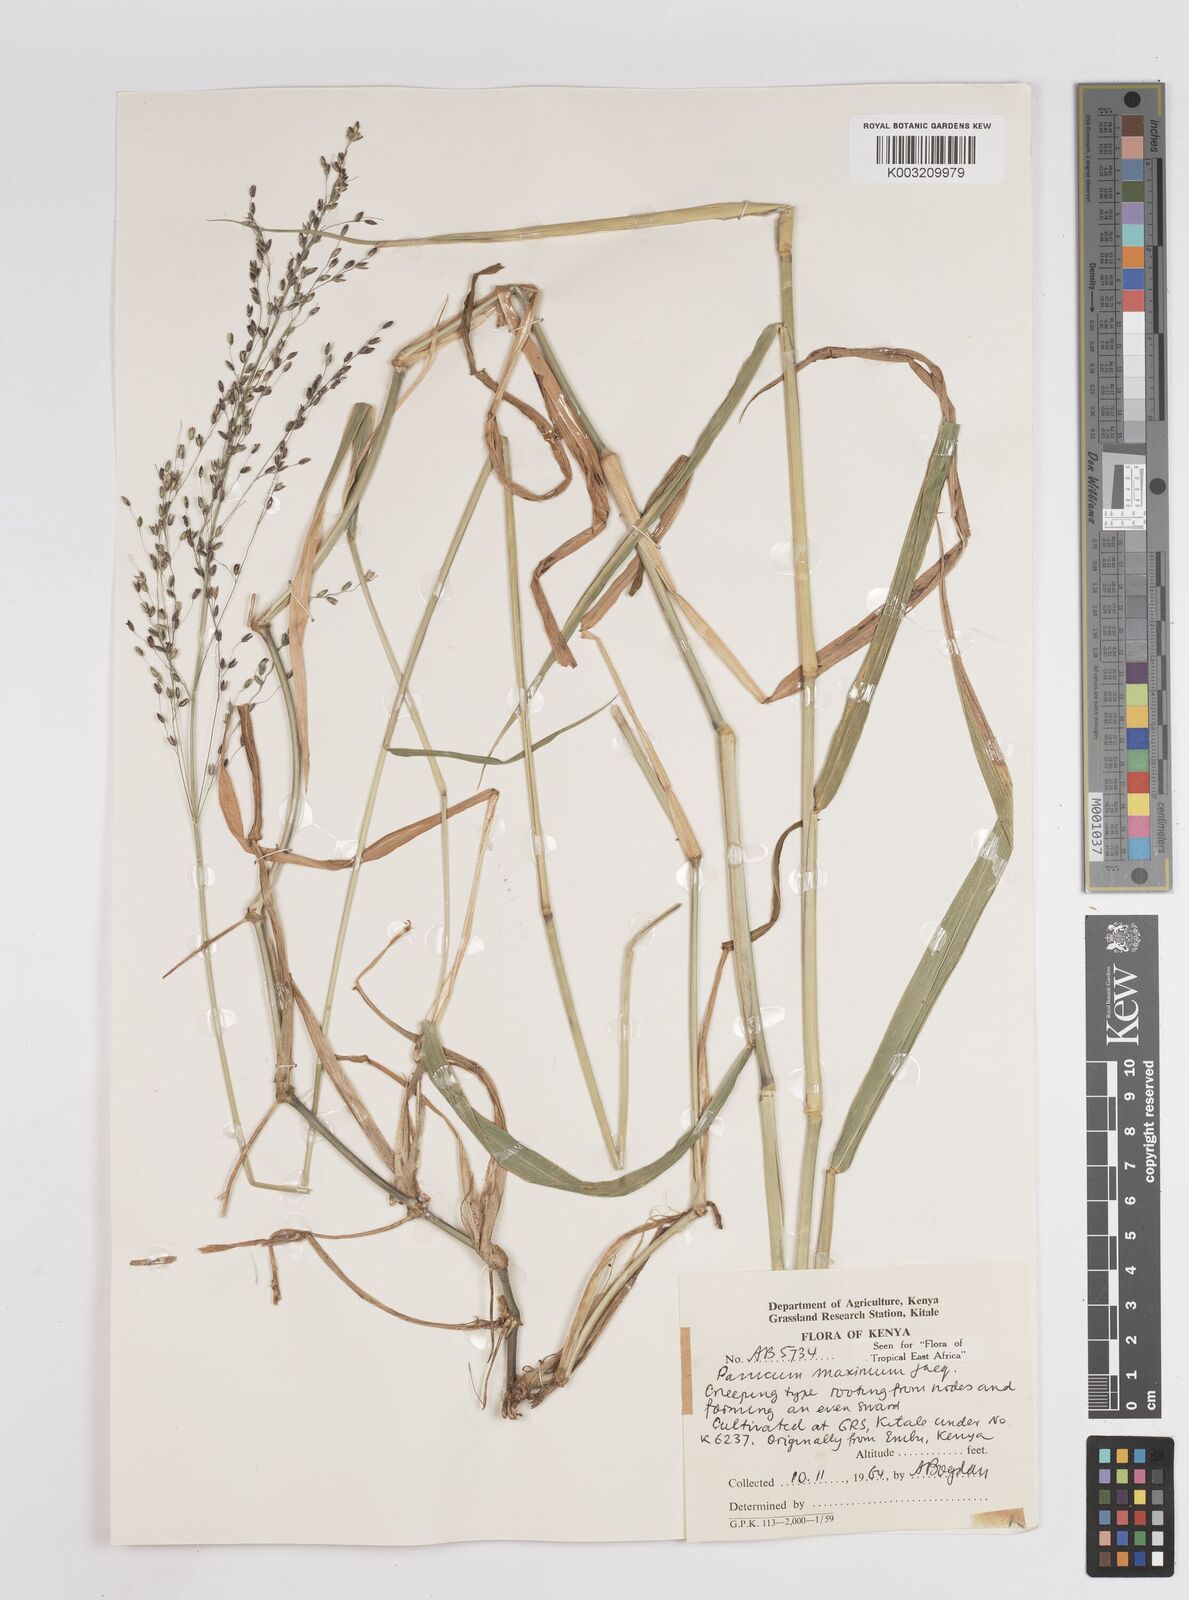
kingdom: Plantae
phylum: Tracheophyta
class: Liliopsida
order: Poales
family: Poaceae
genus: Megathyrsus
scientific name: Megathyrsus maximus
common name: Guineagrass
